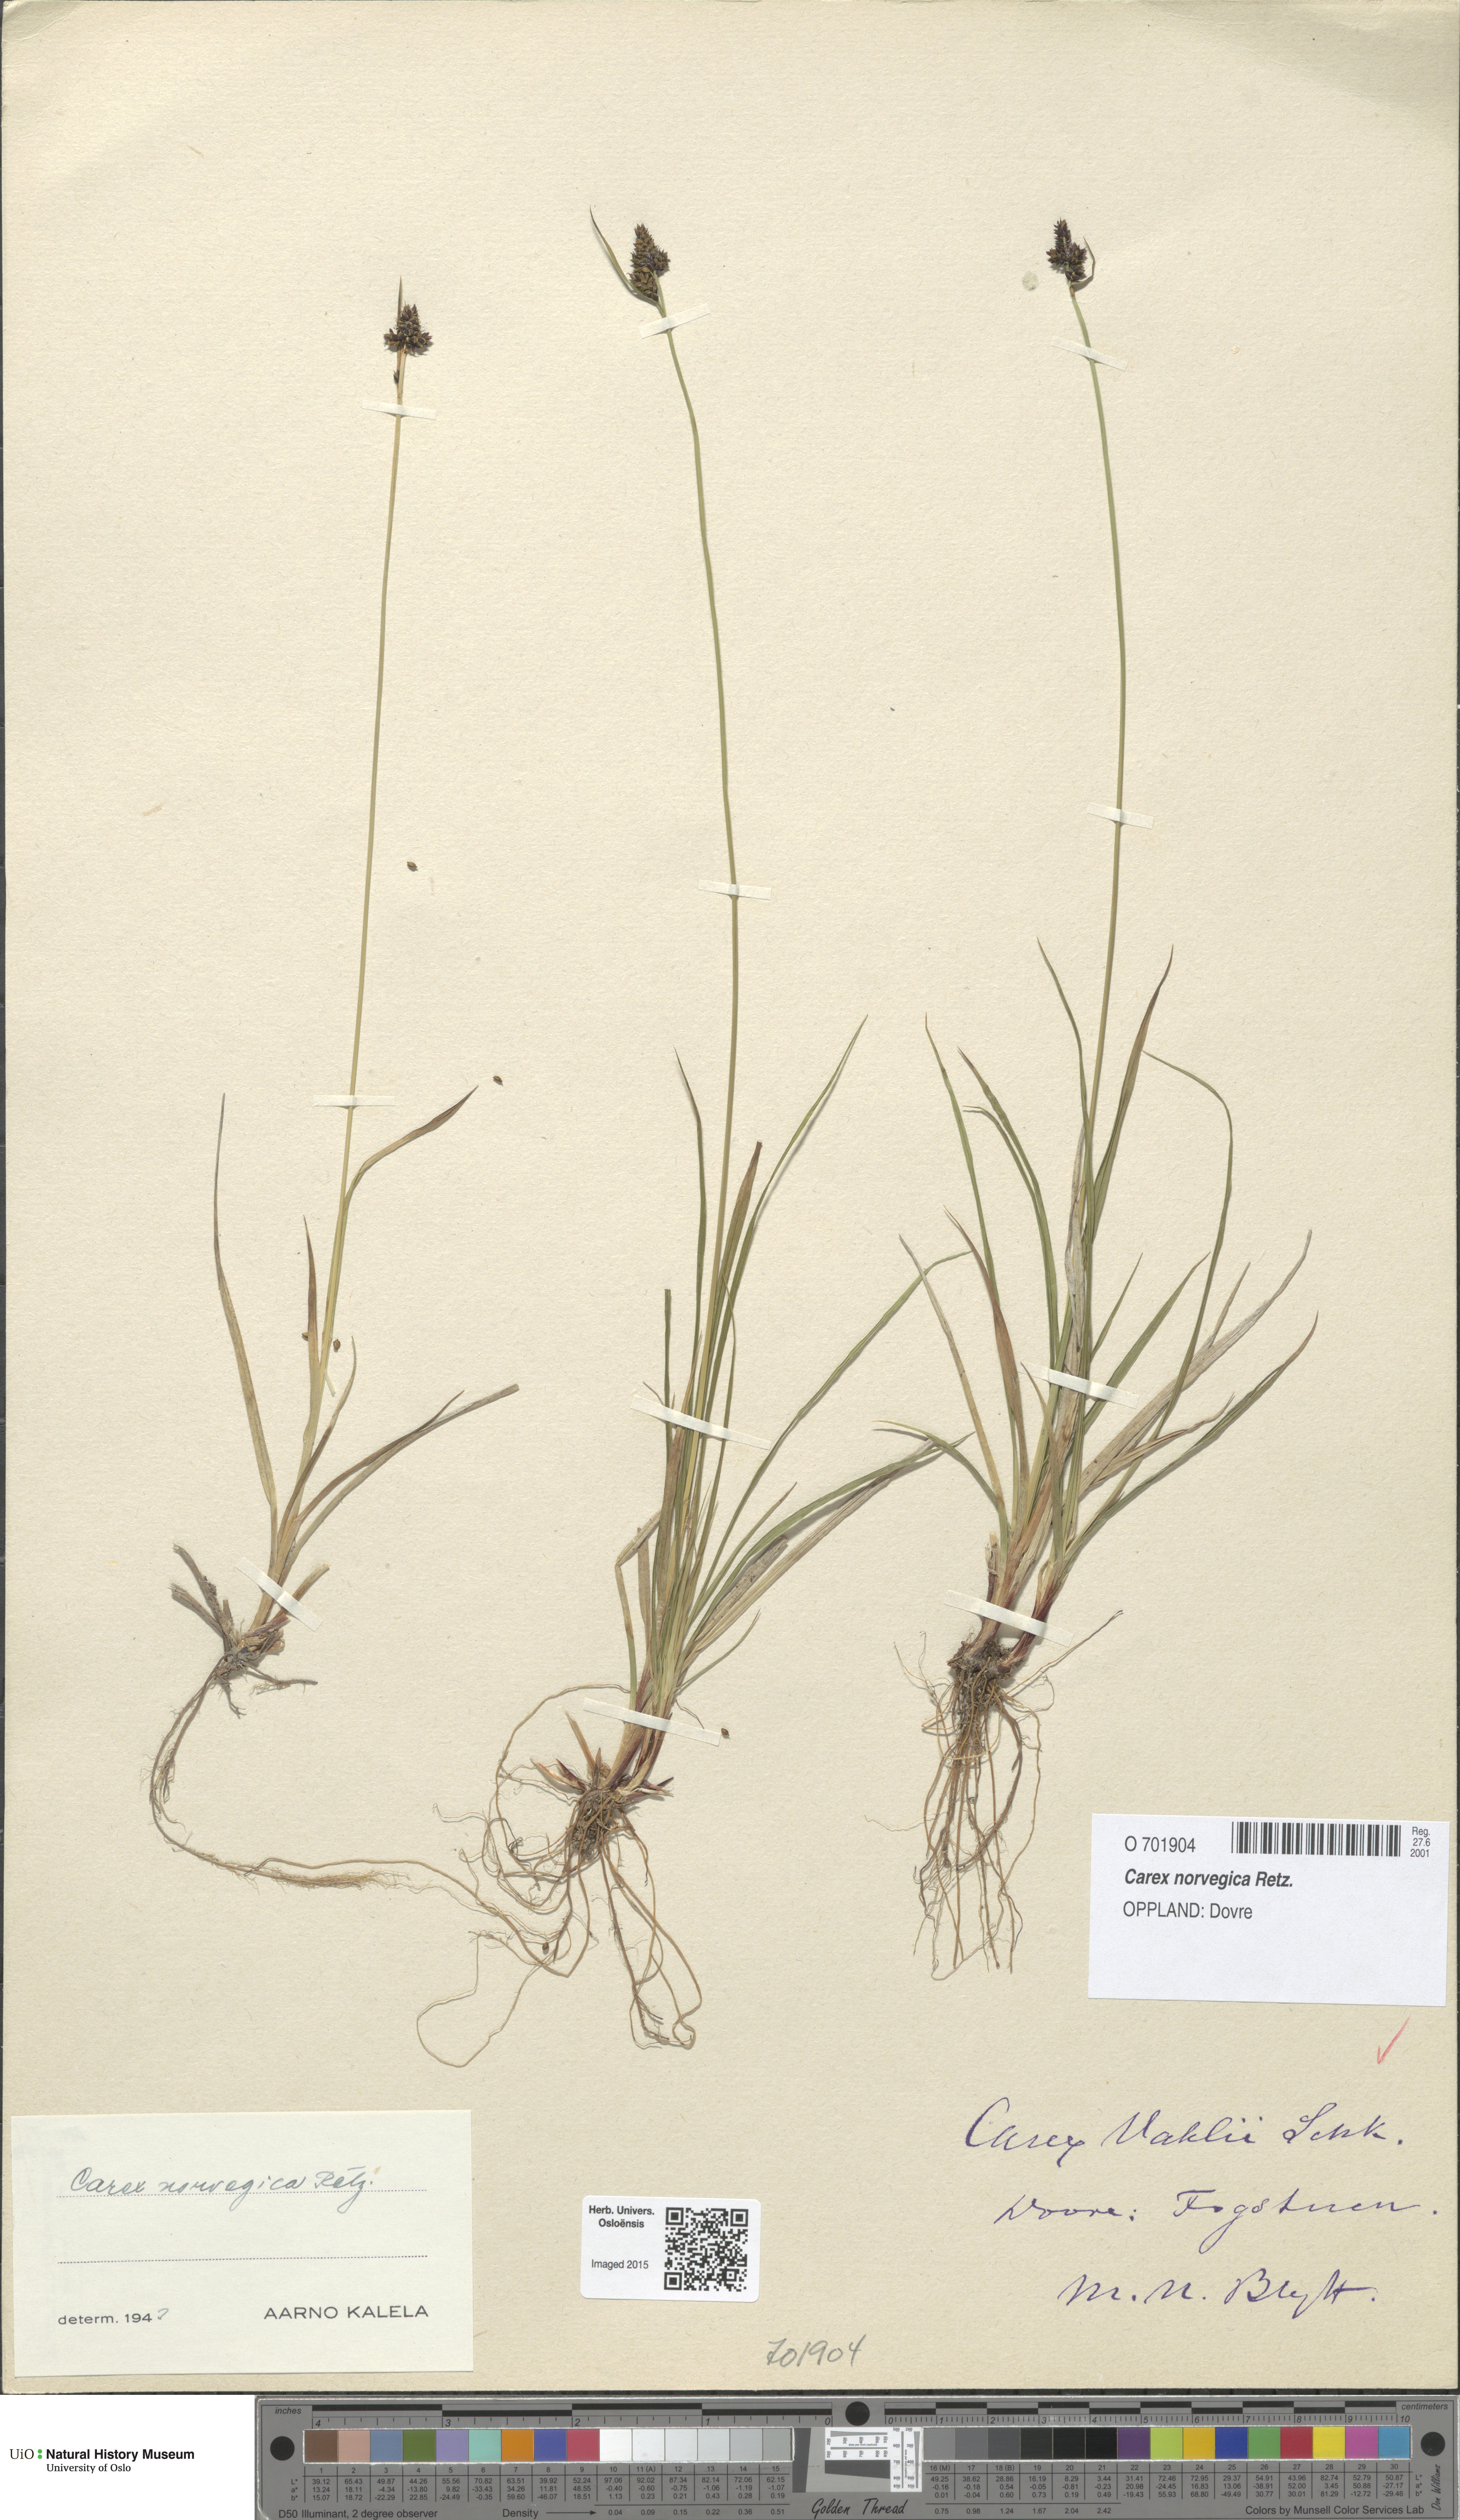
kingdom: Plantae
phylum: Tracheophyta
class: Liliopsida
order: Poales
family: Cyperaceae
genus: Carex
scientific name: Carex norvegica
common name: Close-headed alpine-sedge
